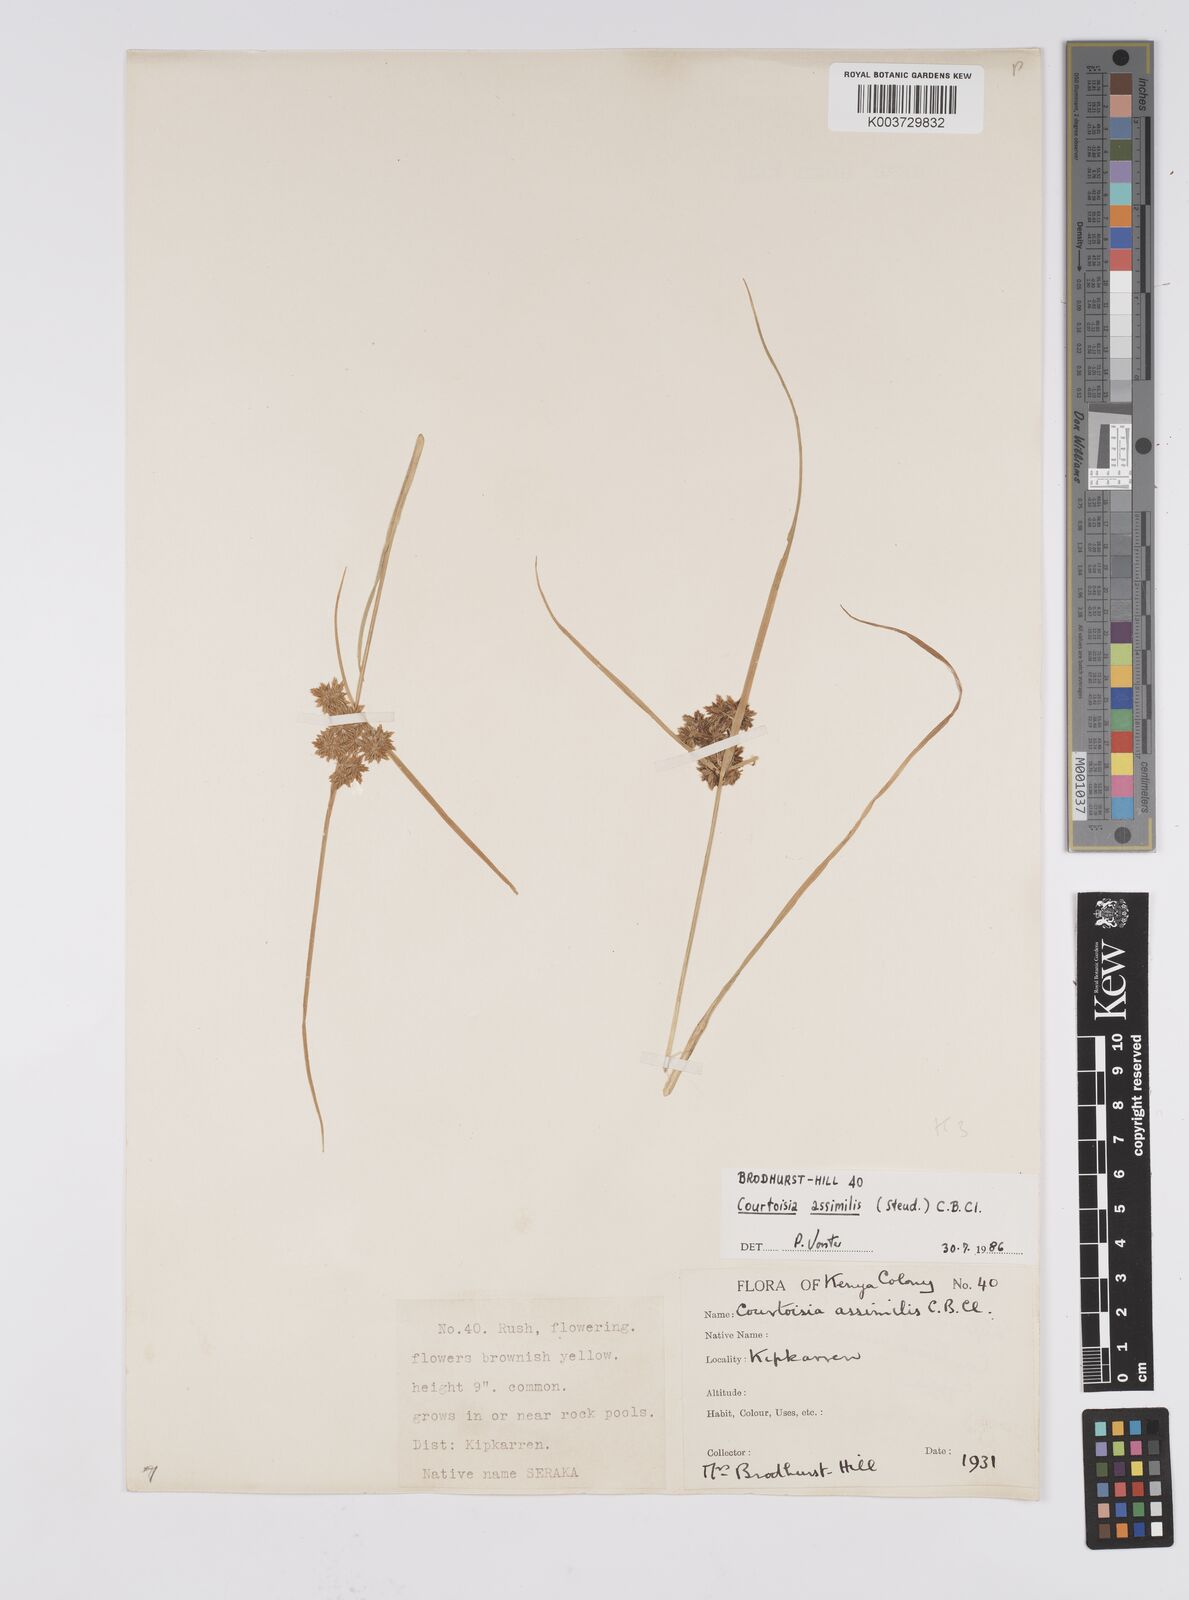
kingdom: Plantae
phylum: Tracheophyta
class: Liliopsida
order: Poales
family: Cyperaceae
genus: Cyperus
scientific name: Cyperus assimilis
